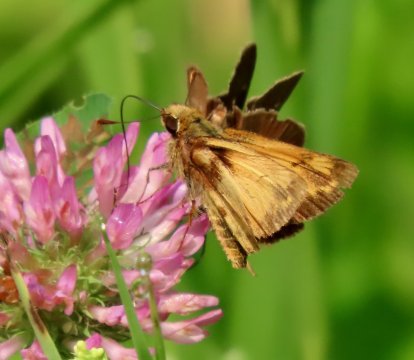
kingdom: Animalia
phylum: Arthropoda
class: Insecta
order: Lepidoptera
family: Hesperiidae
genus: Lon
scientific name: Lon zabulon
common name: Zabulon Skipper
